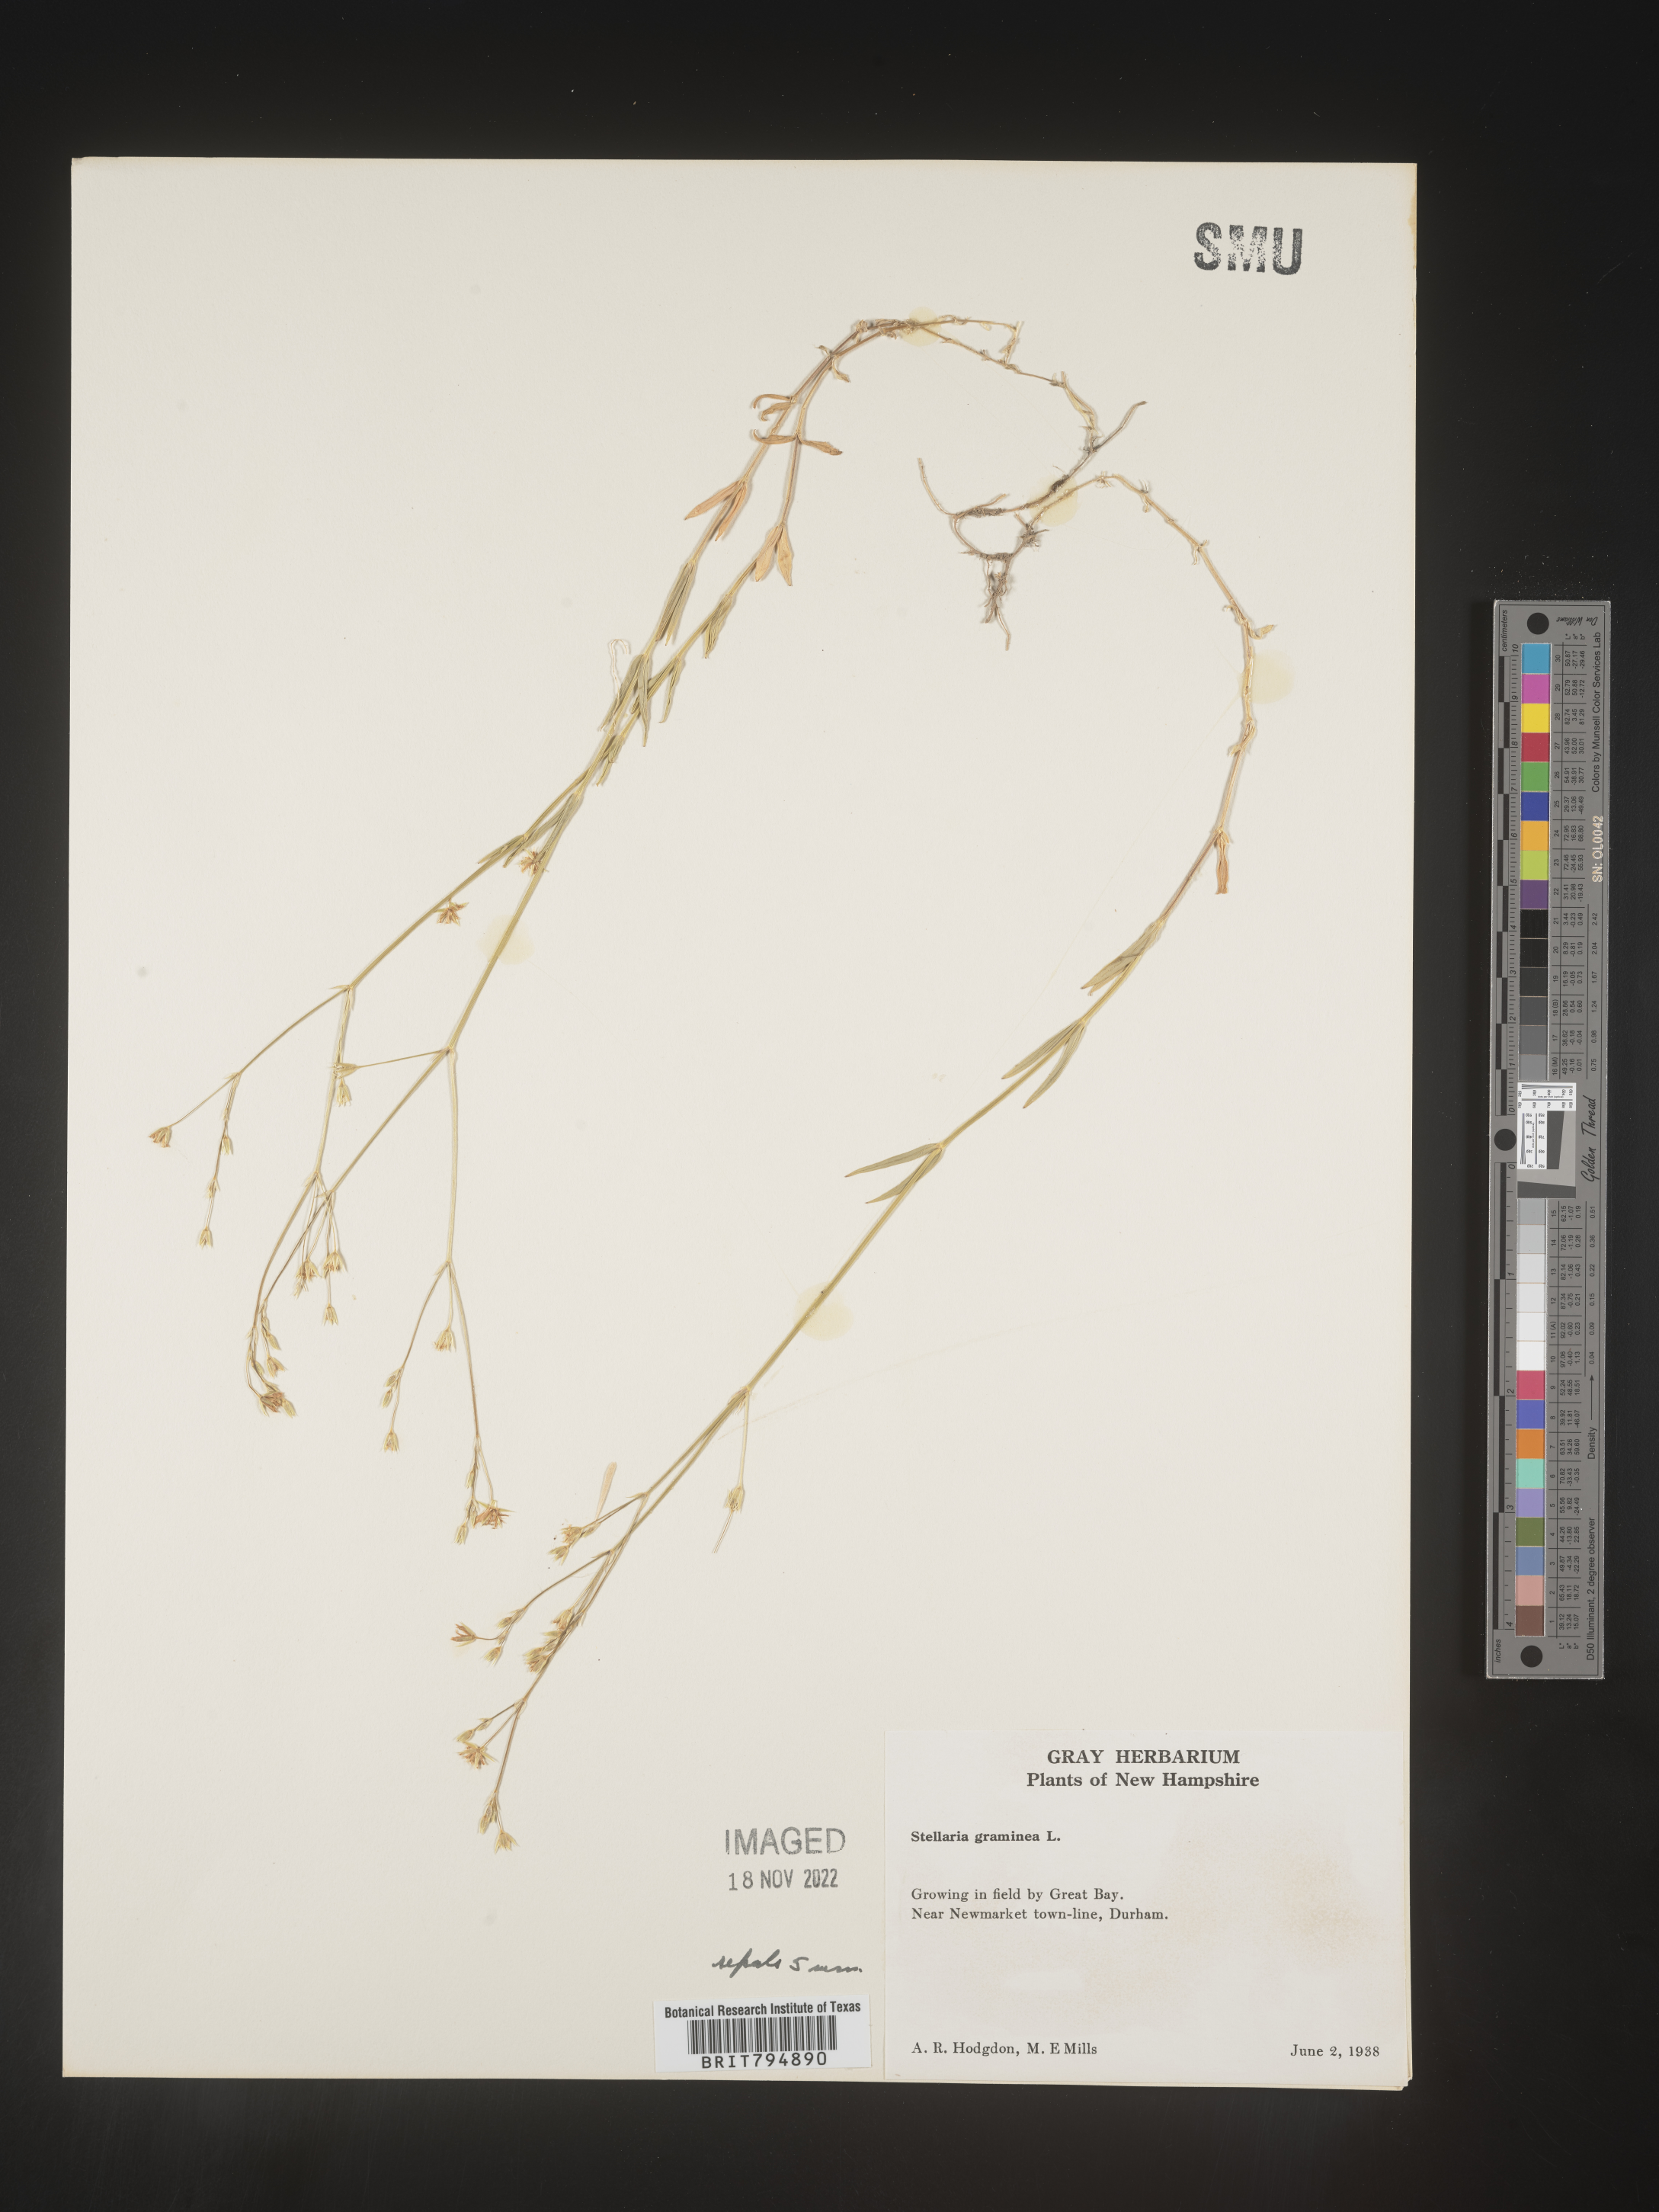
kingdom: Plantae
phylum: Tracheophyta
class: Magnoliopsida
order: Caryophyllales
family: Caryophyllaceae
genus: Stellaria
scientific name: Stellaria graminea
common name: Grass-like starwort
